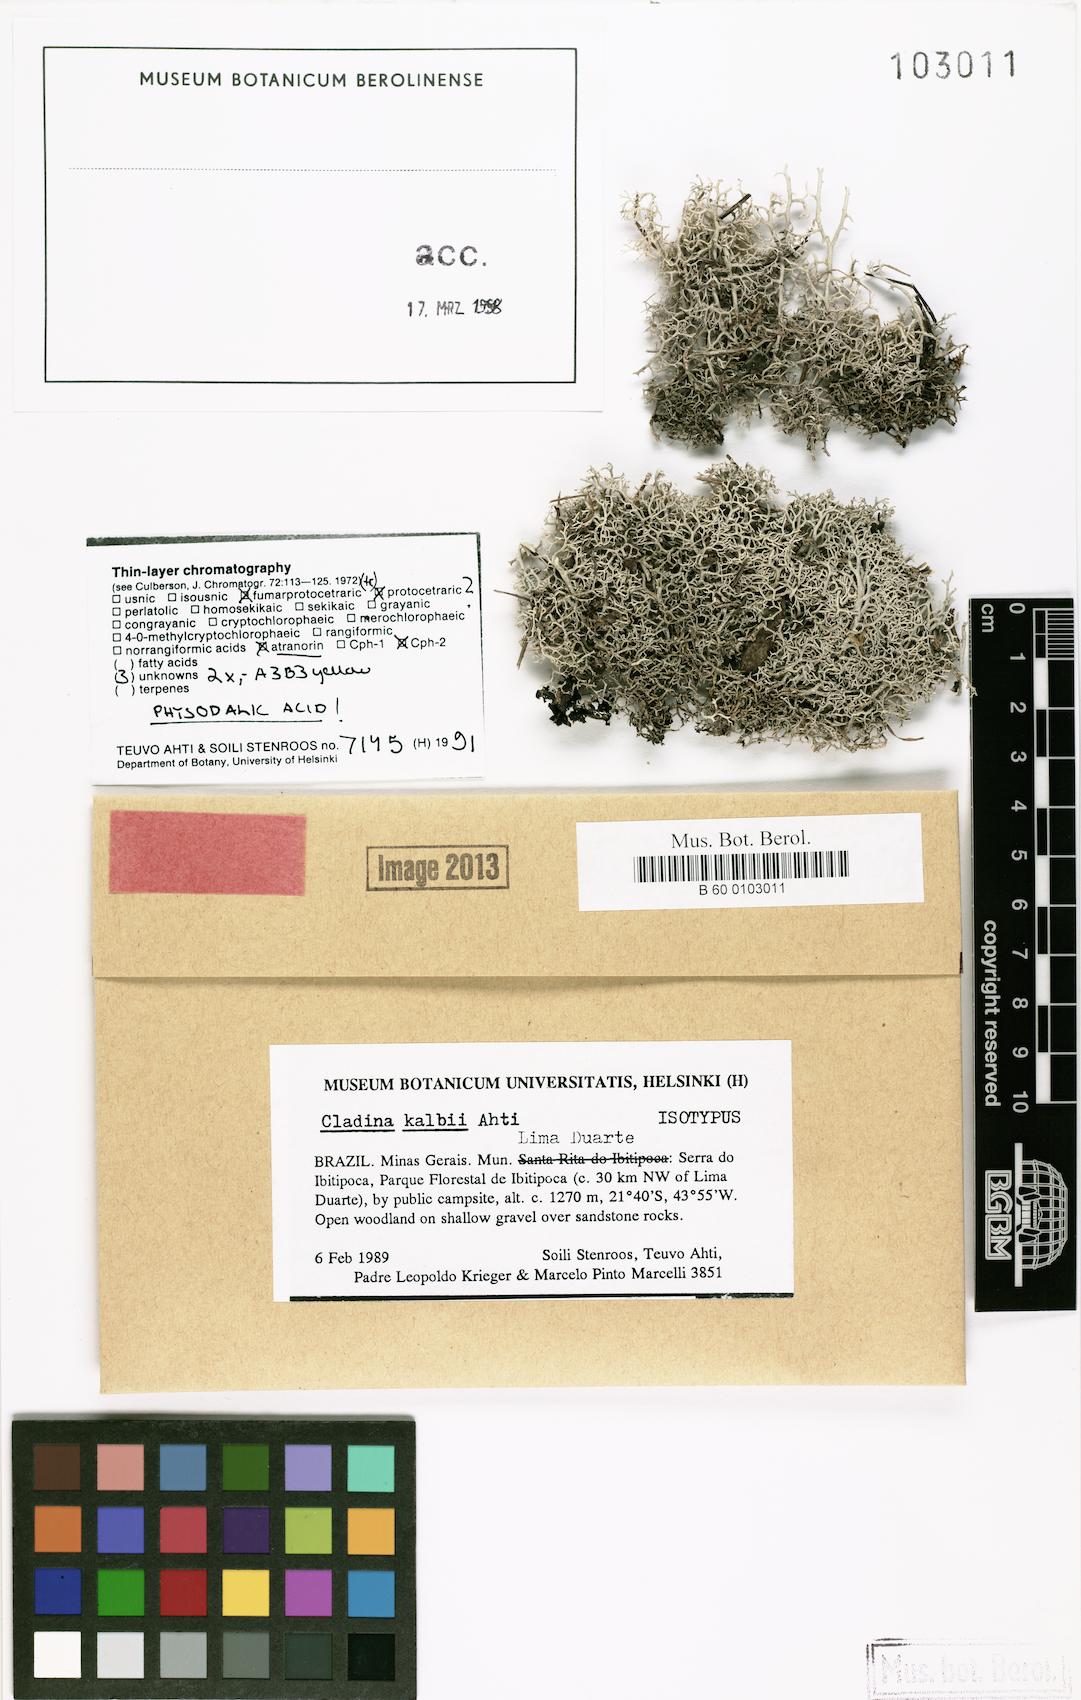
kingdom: Fungi
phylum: Ascomycota
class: Lecanoromycetes
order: Lecanorales
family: Cladoniaceae
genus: Cladonia
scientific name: Cladonia kalbii
